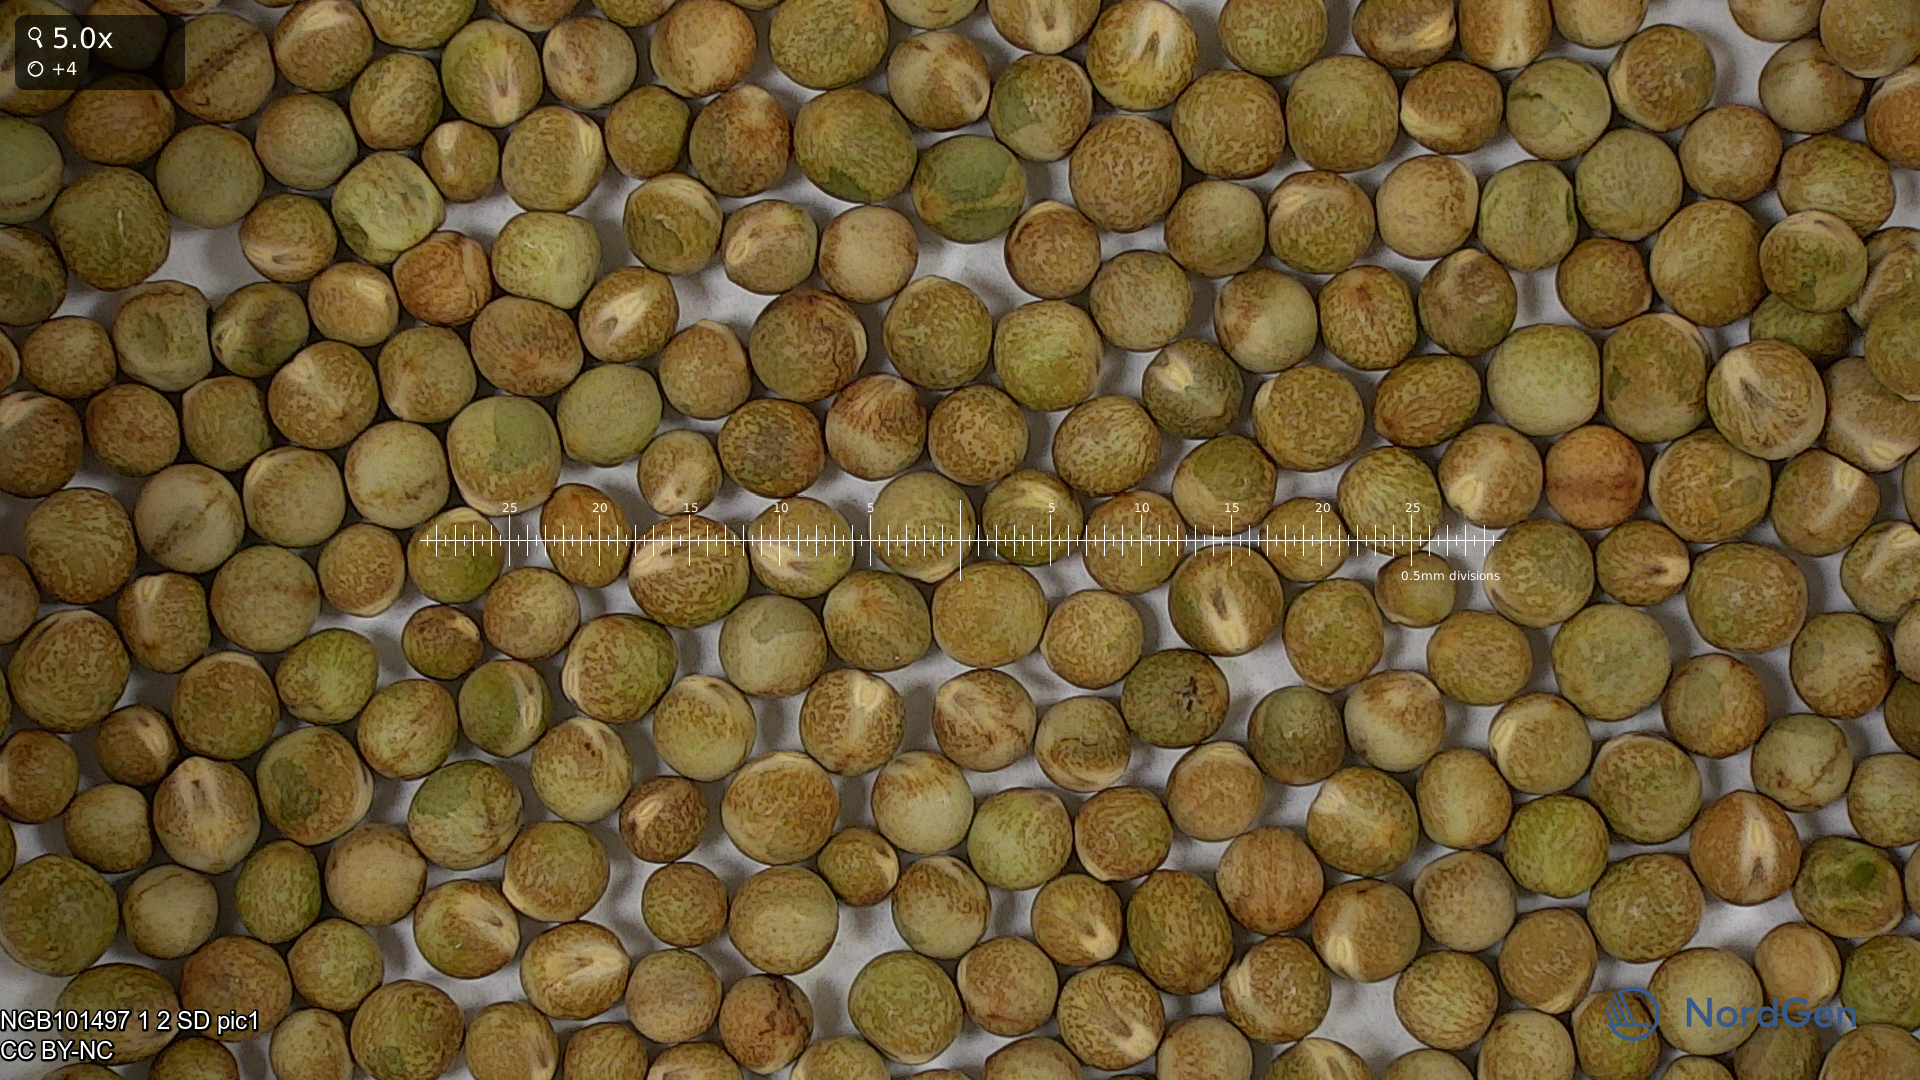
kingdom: Plantae
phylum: Tracheophyta
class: Magnoliopsida
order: Fabales
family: Fabaceae
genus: Lathyrus
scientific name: Lathyrus oleraceus
